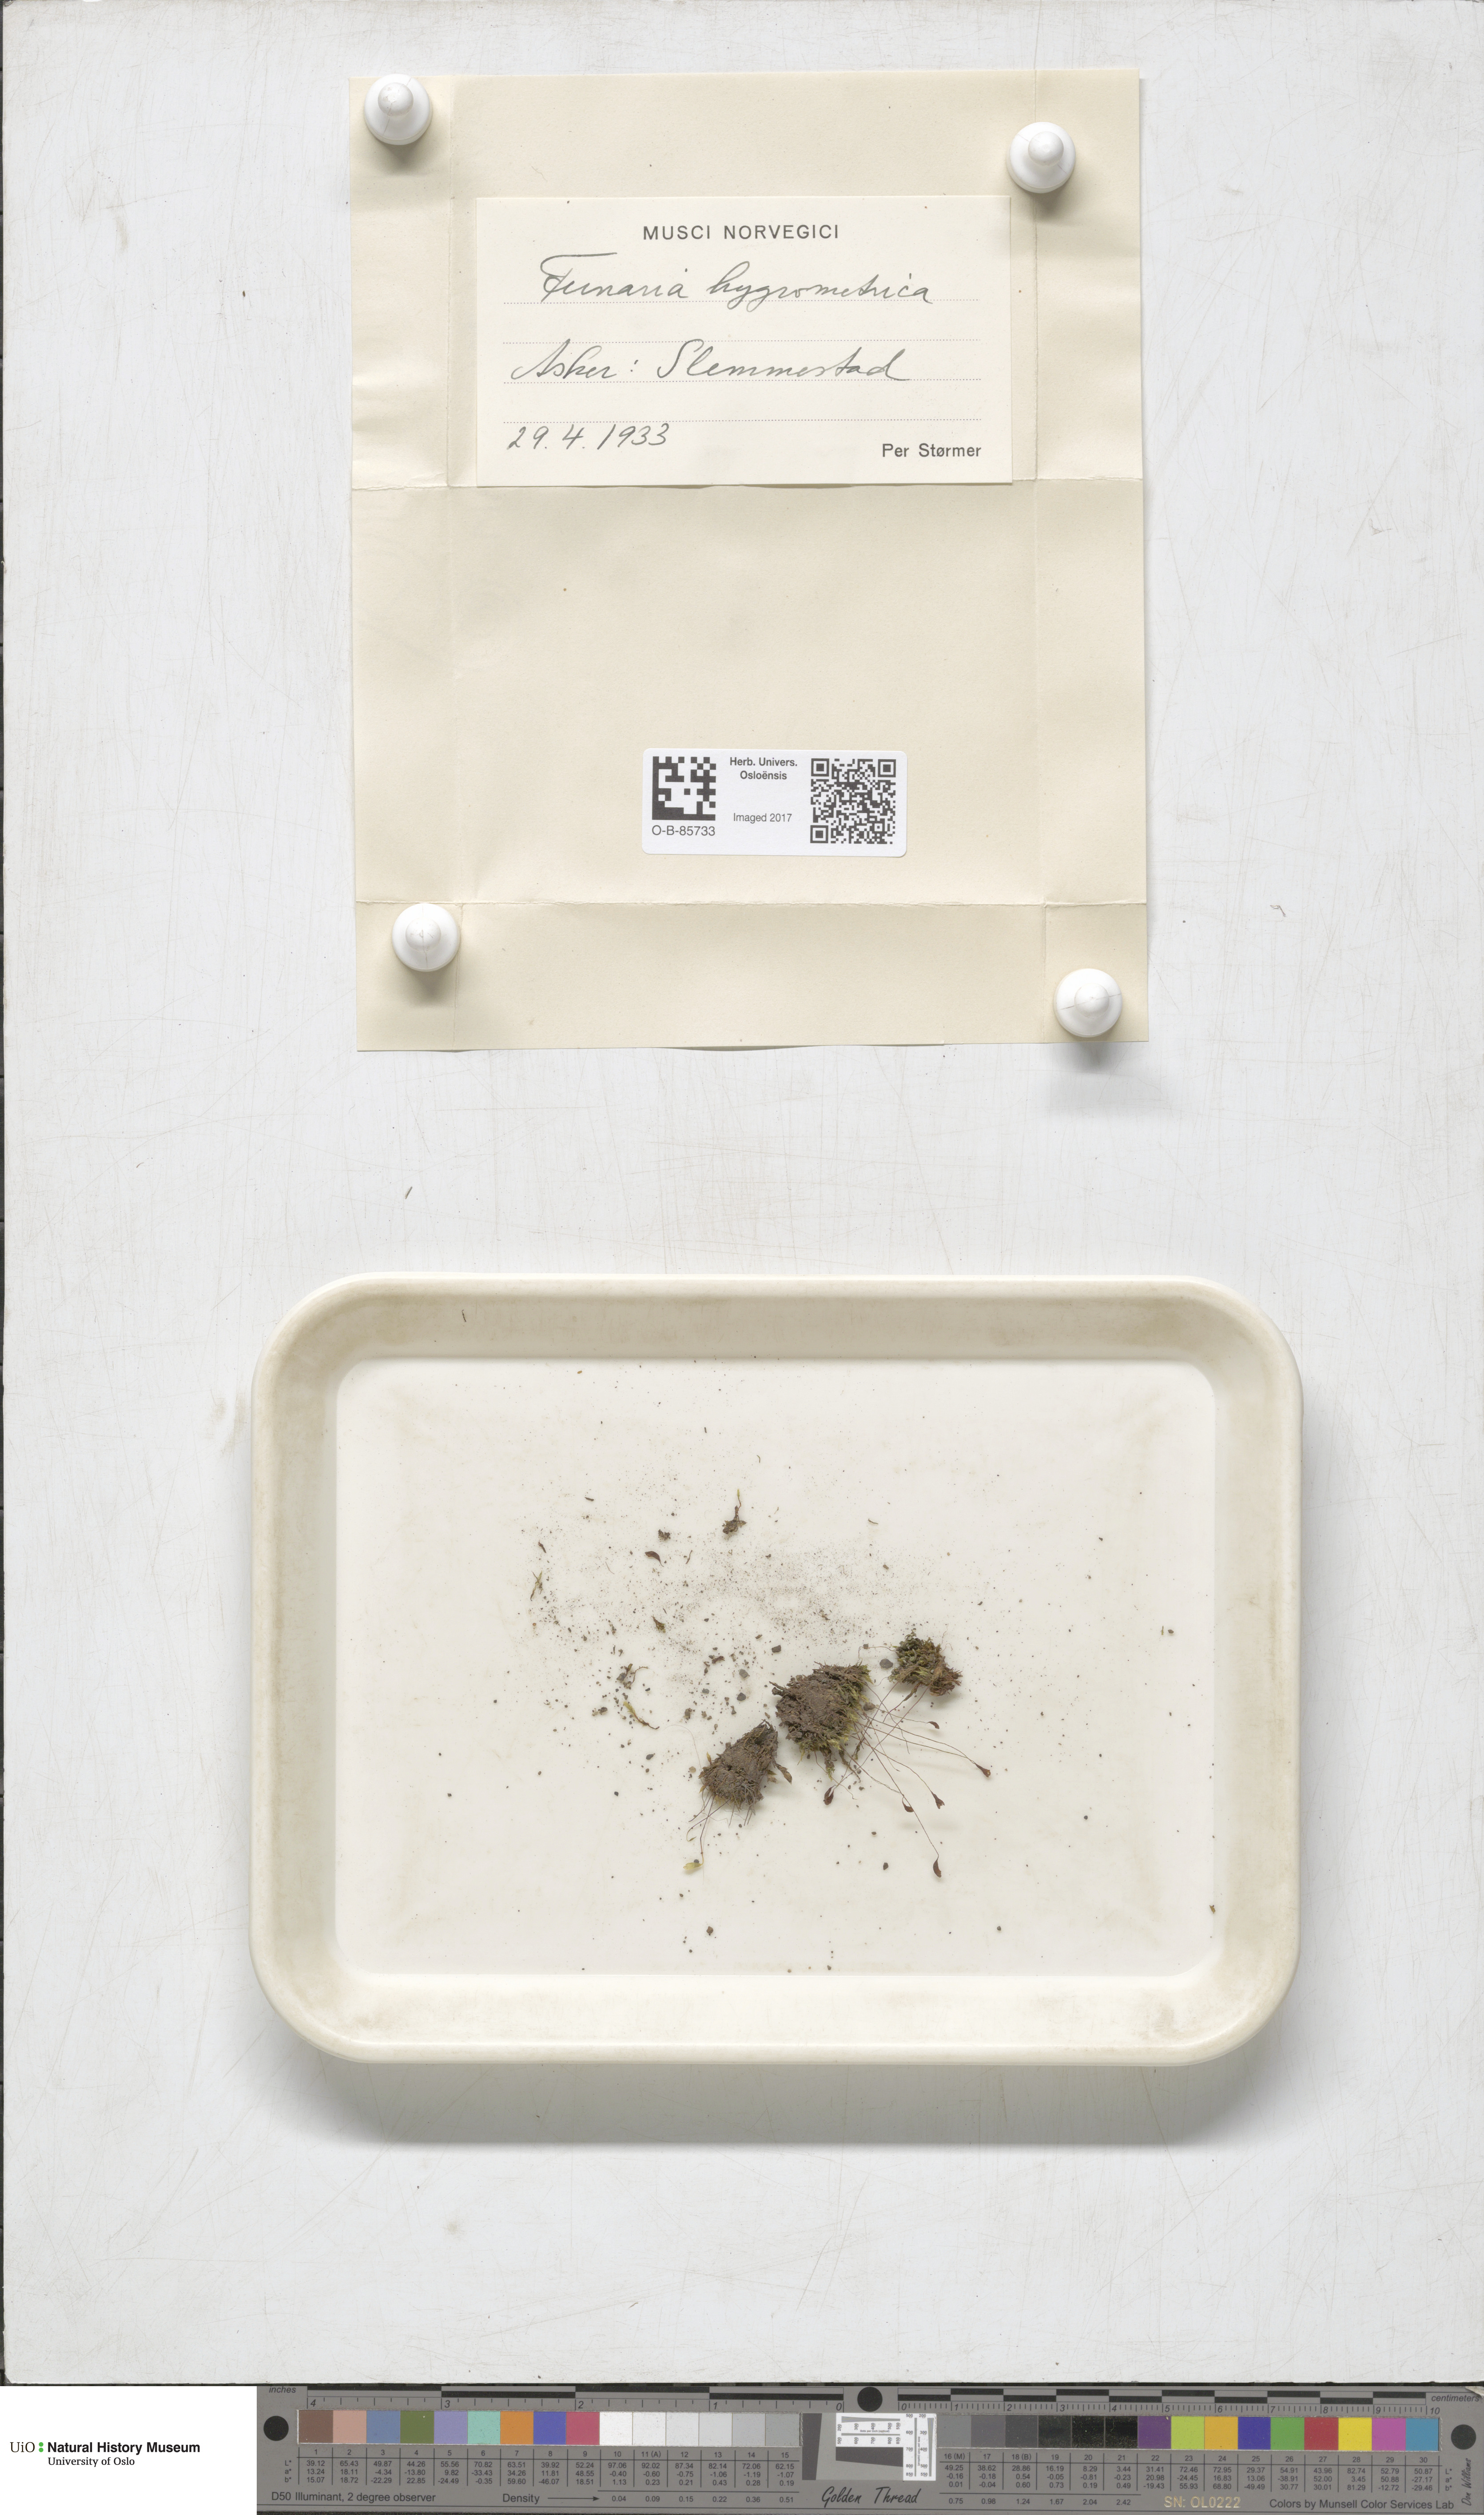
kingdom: Plantae
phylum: Bryophyta
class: Bryopsida
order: Funariales
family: Funariaceae
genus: Funaria
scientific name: Funaria hygrometrica
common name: Common cord moss
